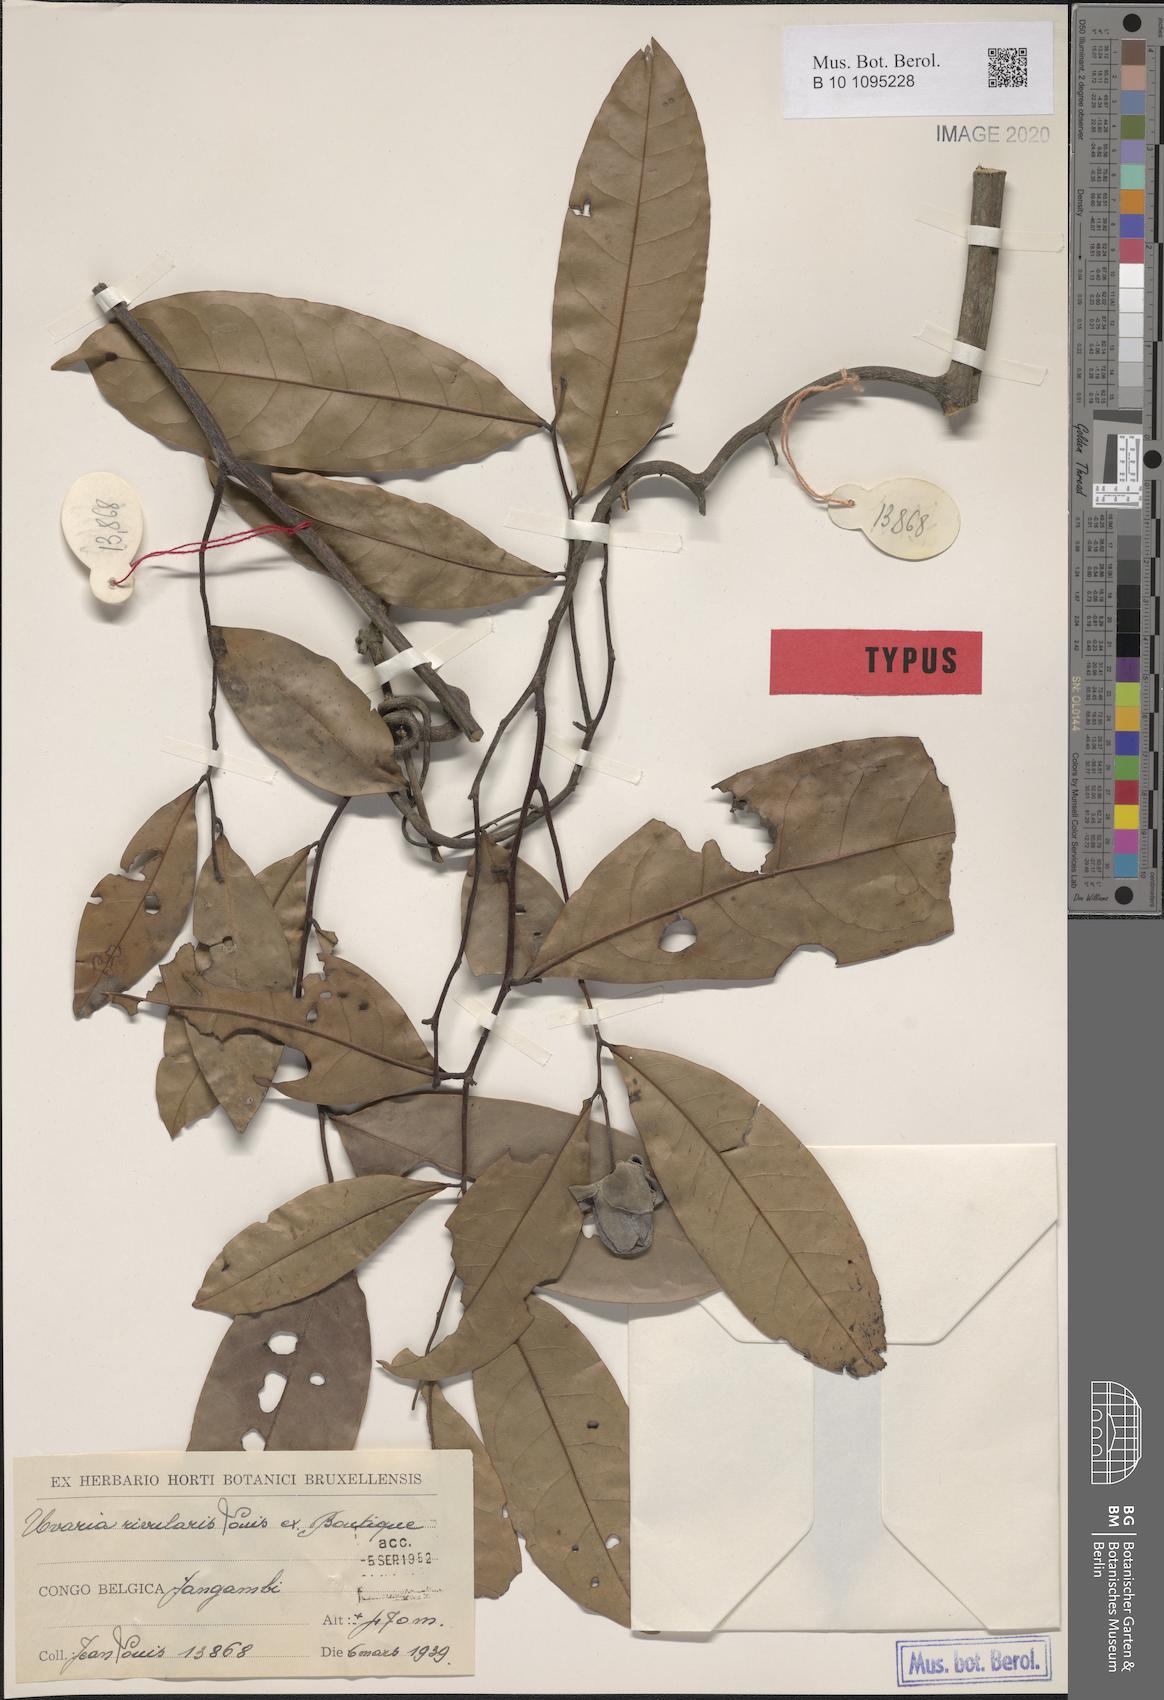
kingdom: Plantae
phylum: Tracheophyta
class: Magnoliopsida
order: Magnoliales
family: Annonaceae
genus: Uvaria
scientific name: Uvaria rivularis
